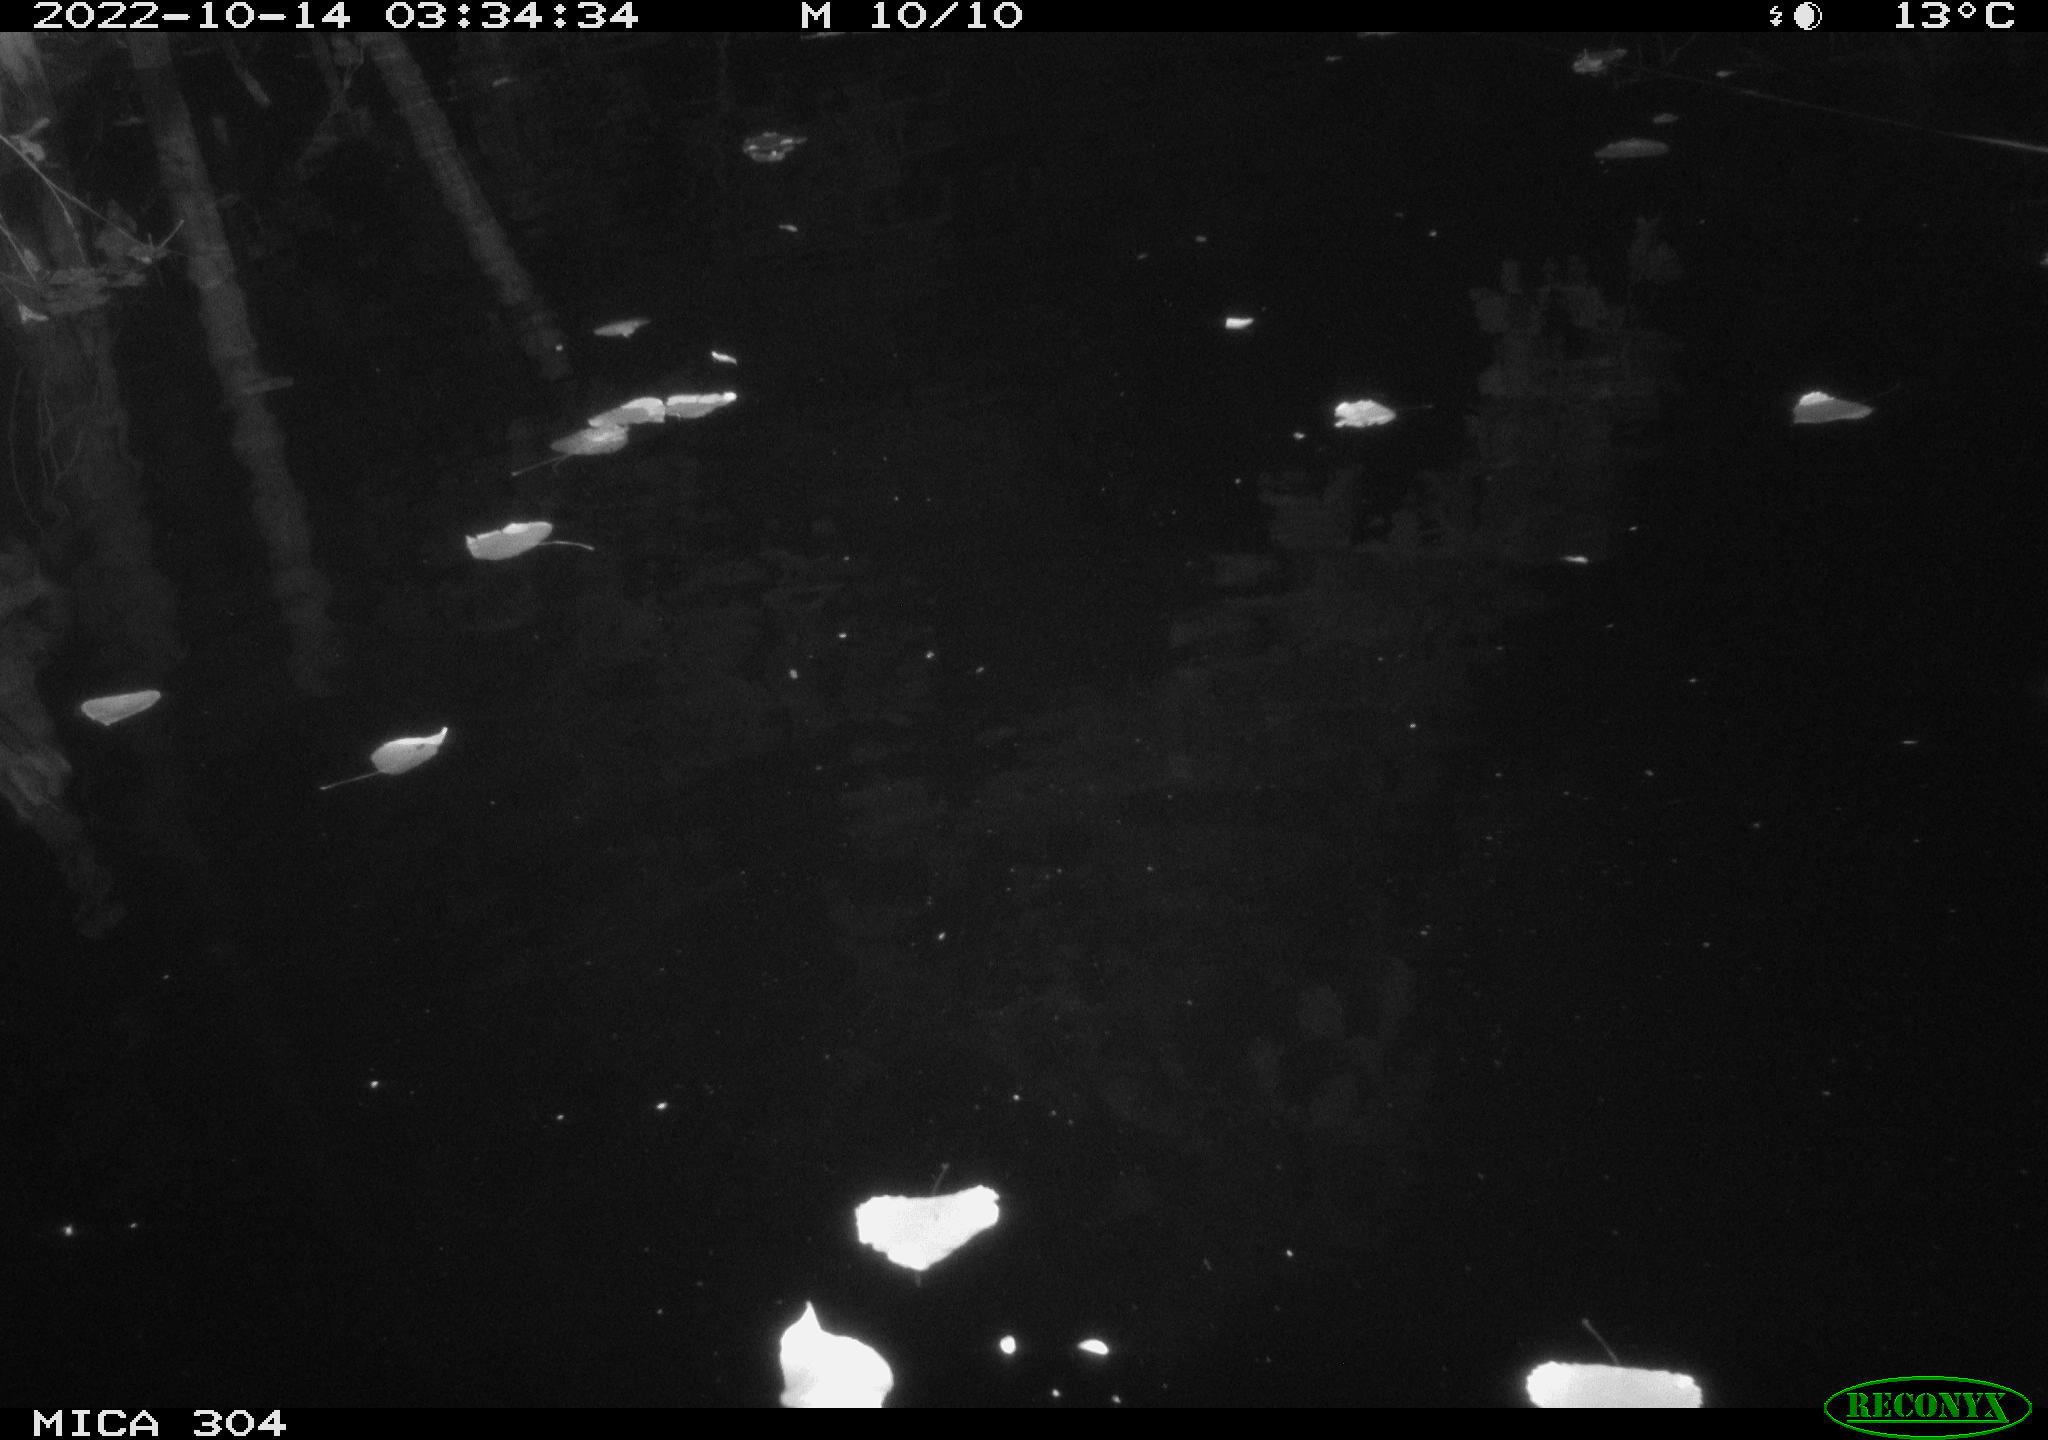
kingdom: Animalia
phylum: Chordata
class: Mammalia
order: Rodentia
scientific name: Rodentia
